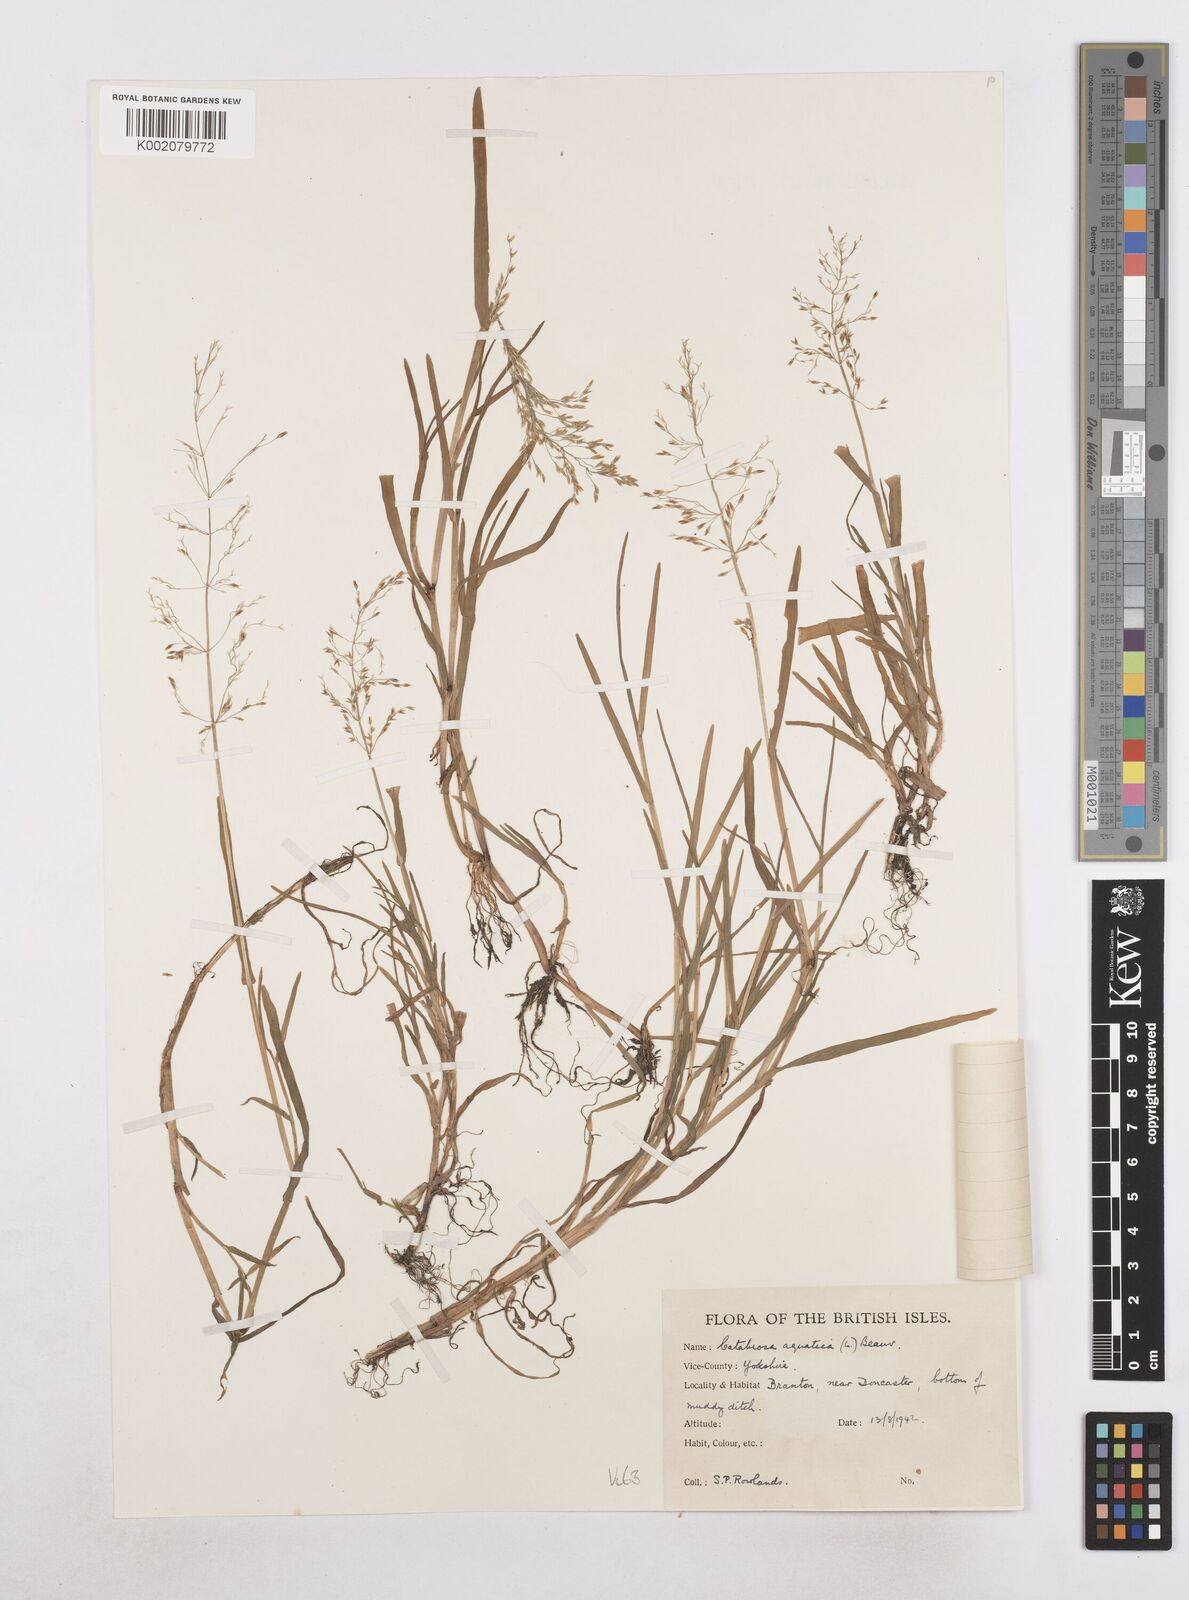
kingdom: Plantae
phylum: Tracheophyta
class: Liliopsida
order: Poales
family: Poaceae
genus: Catabrosa
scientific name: Catabrosa aquatica
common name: Whorl-grass
